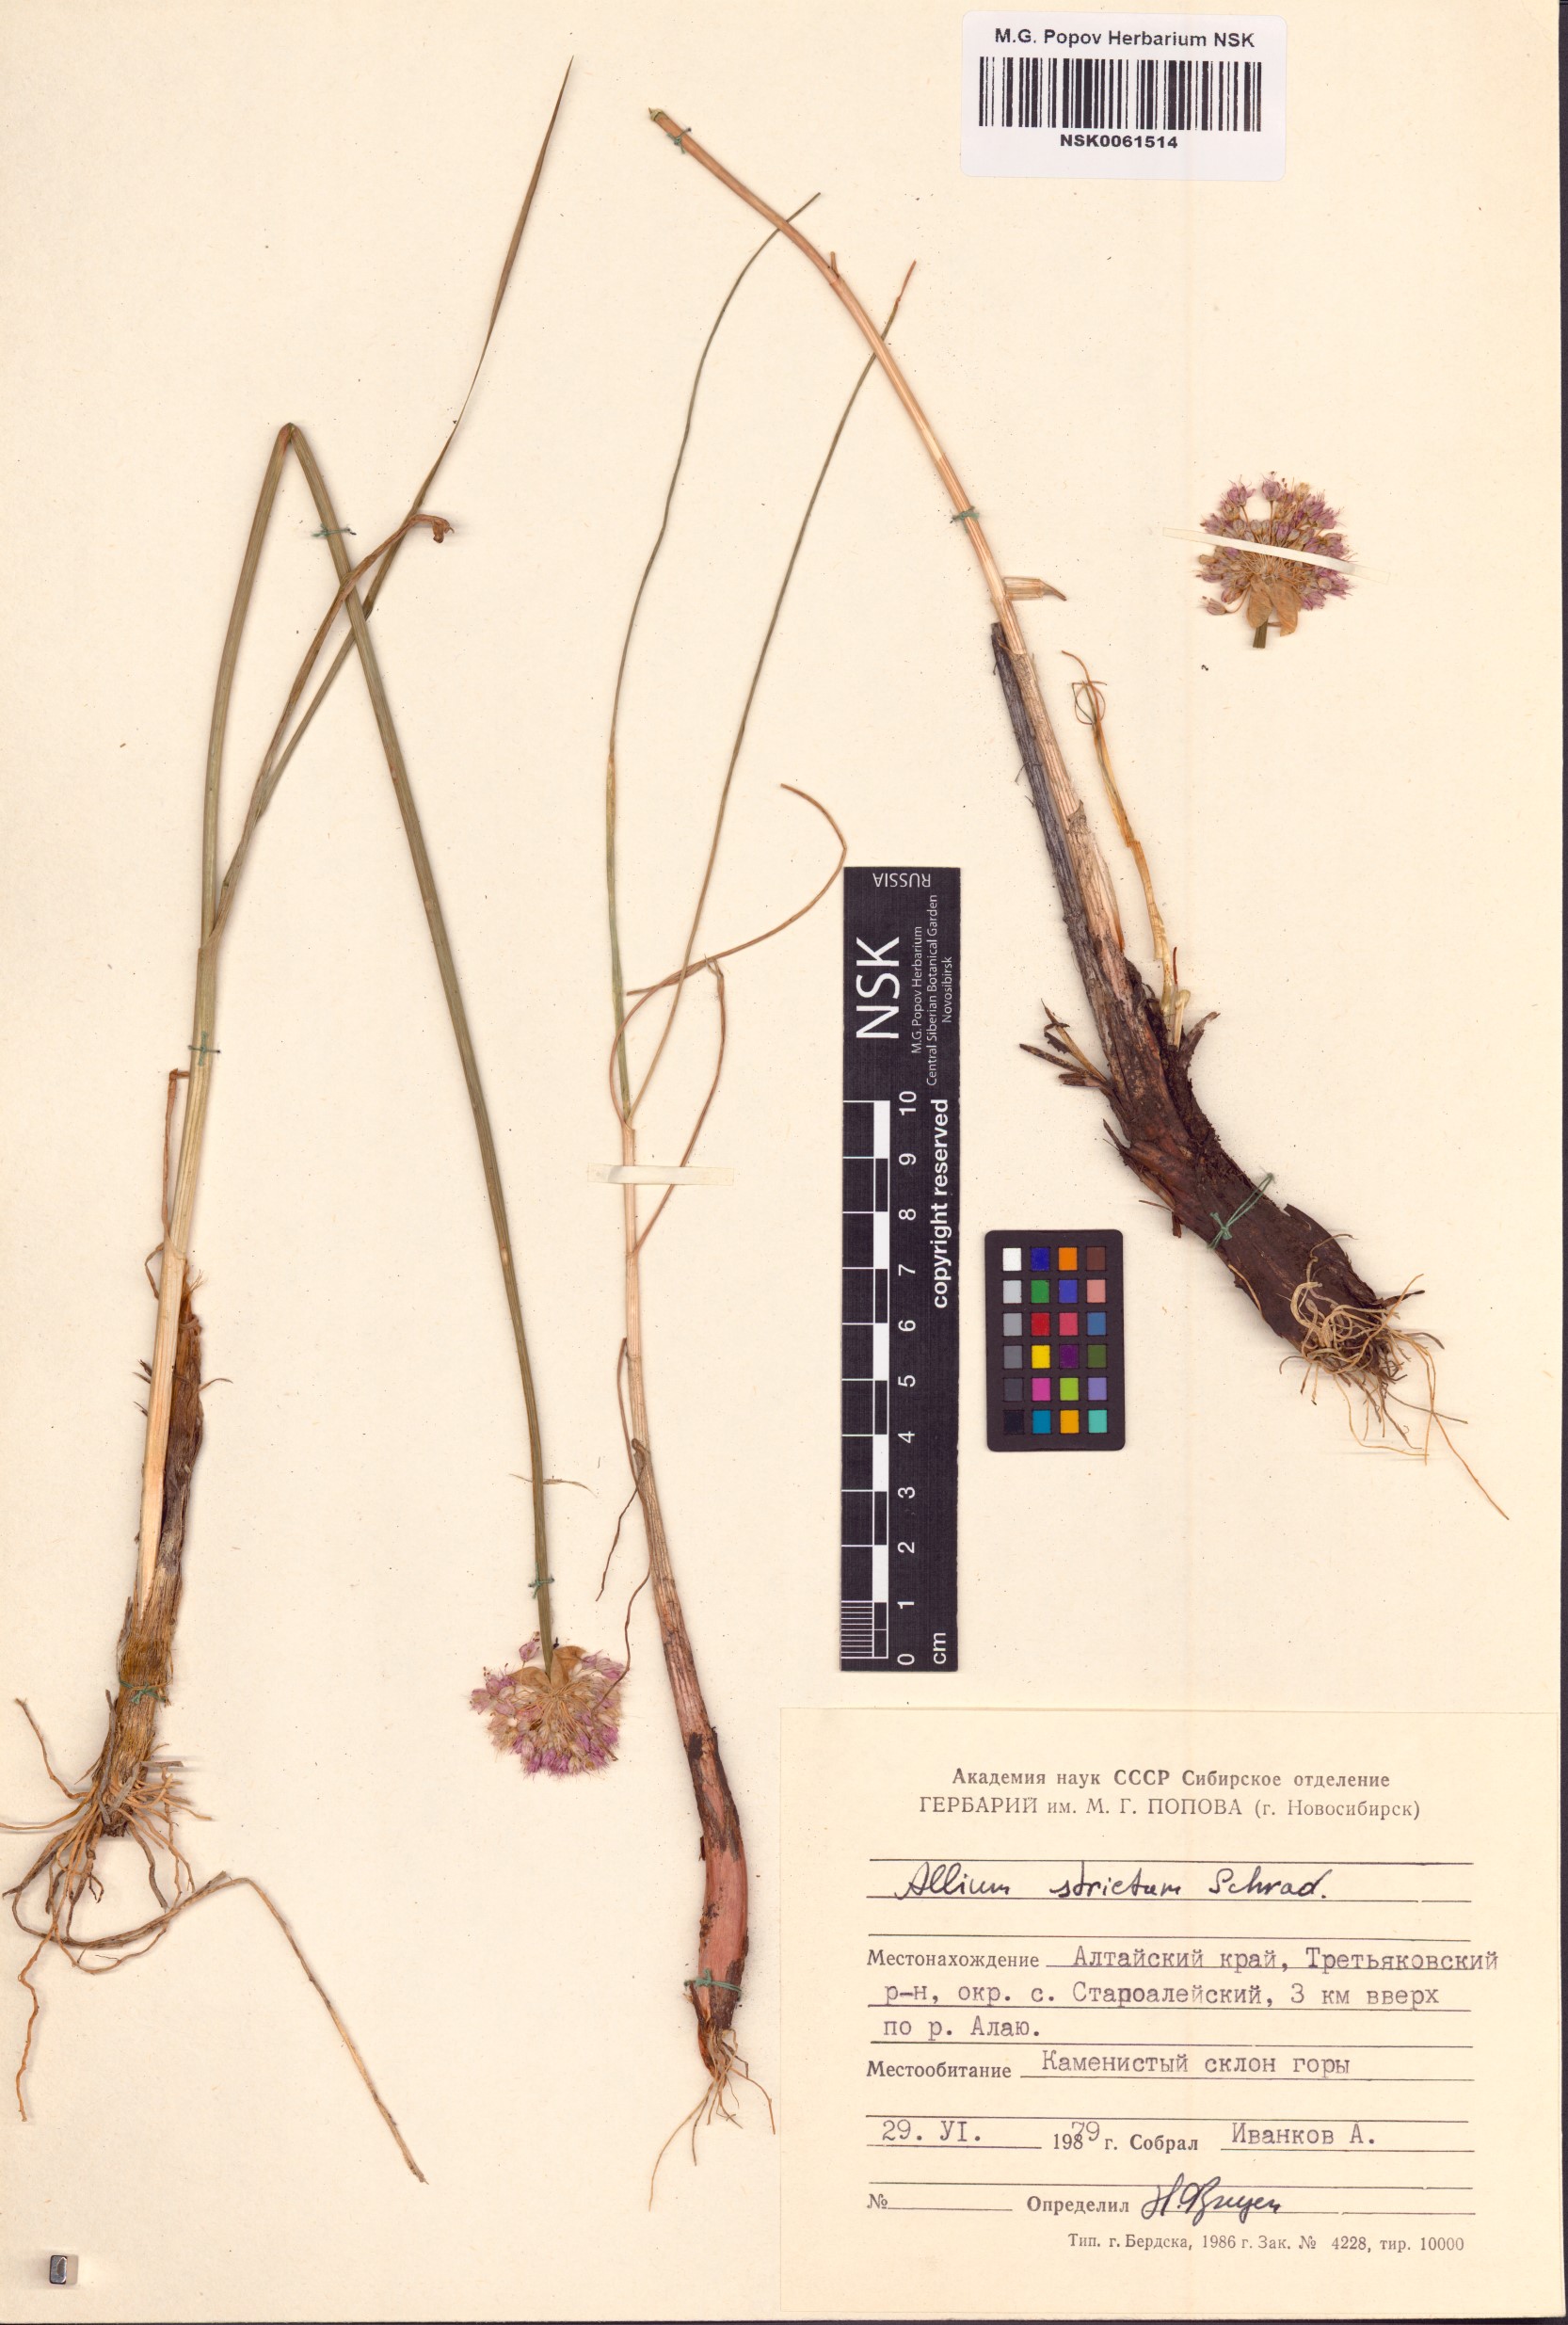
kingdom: Plantae
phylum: Tracheophyta
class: Liliopsida
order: Asparagales
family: Amaryllidaceae
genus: Allium
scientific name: Allium strictum
